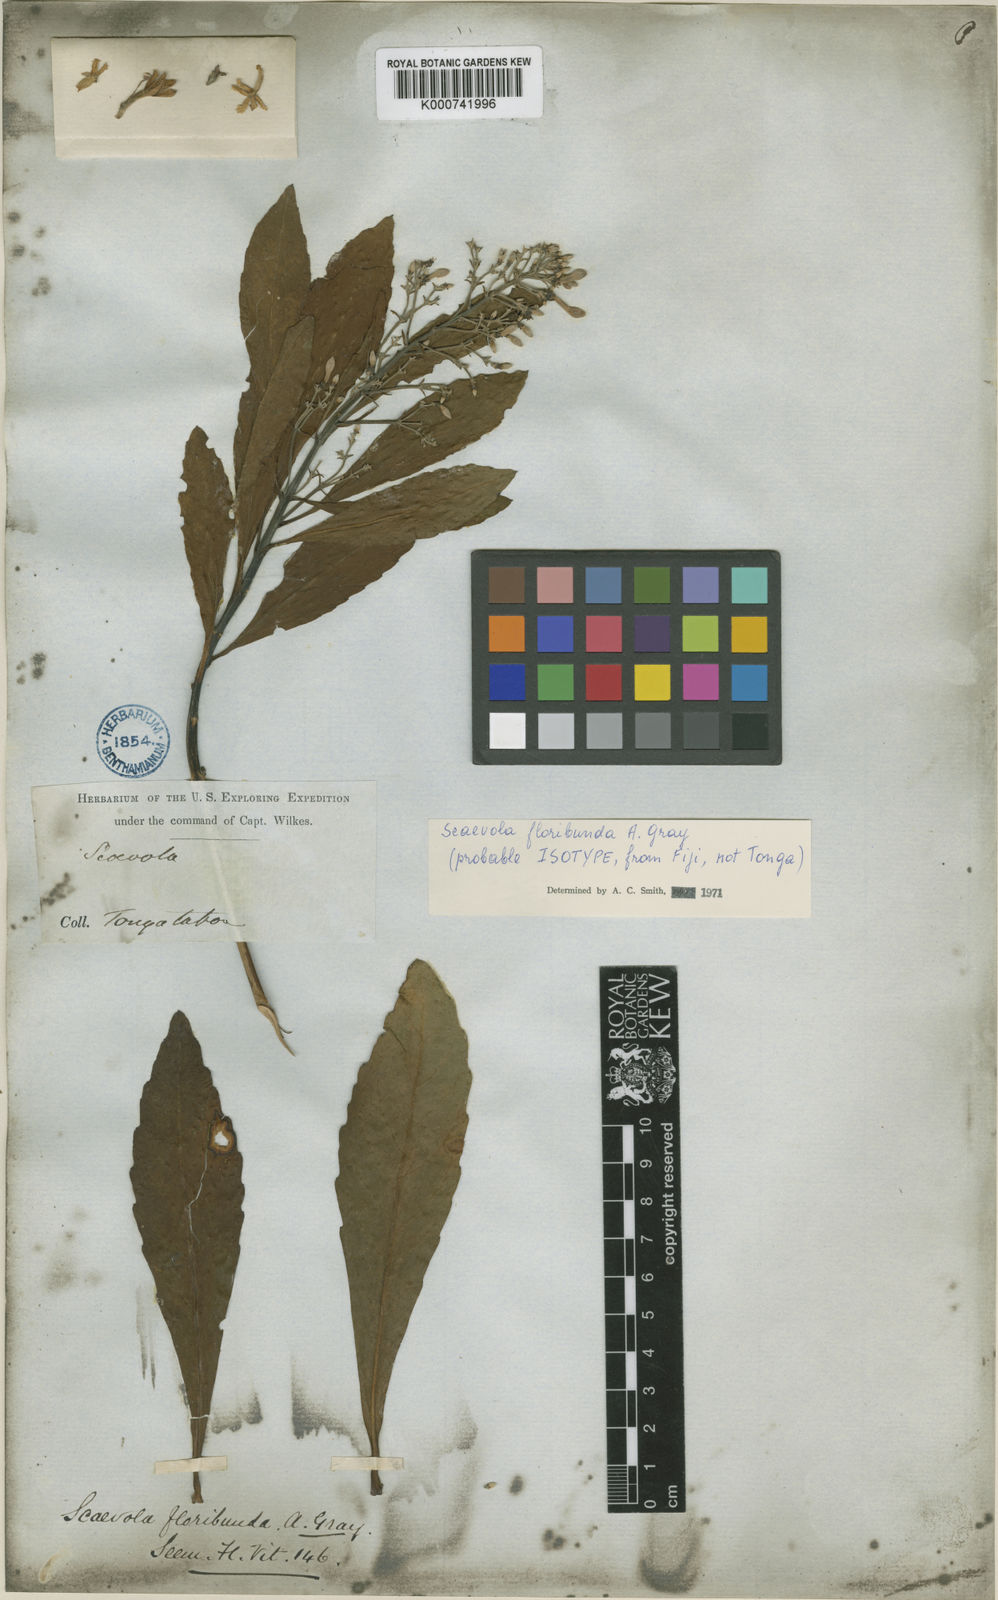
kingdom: Plantae
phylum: Tracheophyta
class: Magnoliopsida
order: Asterales
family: Goodeniaceae
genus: Scaevola
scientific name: Scaevola floribunda
